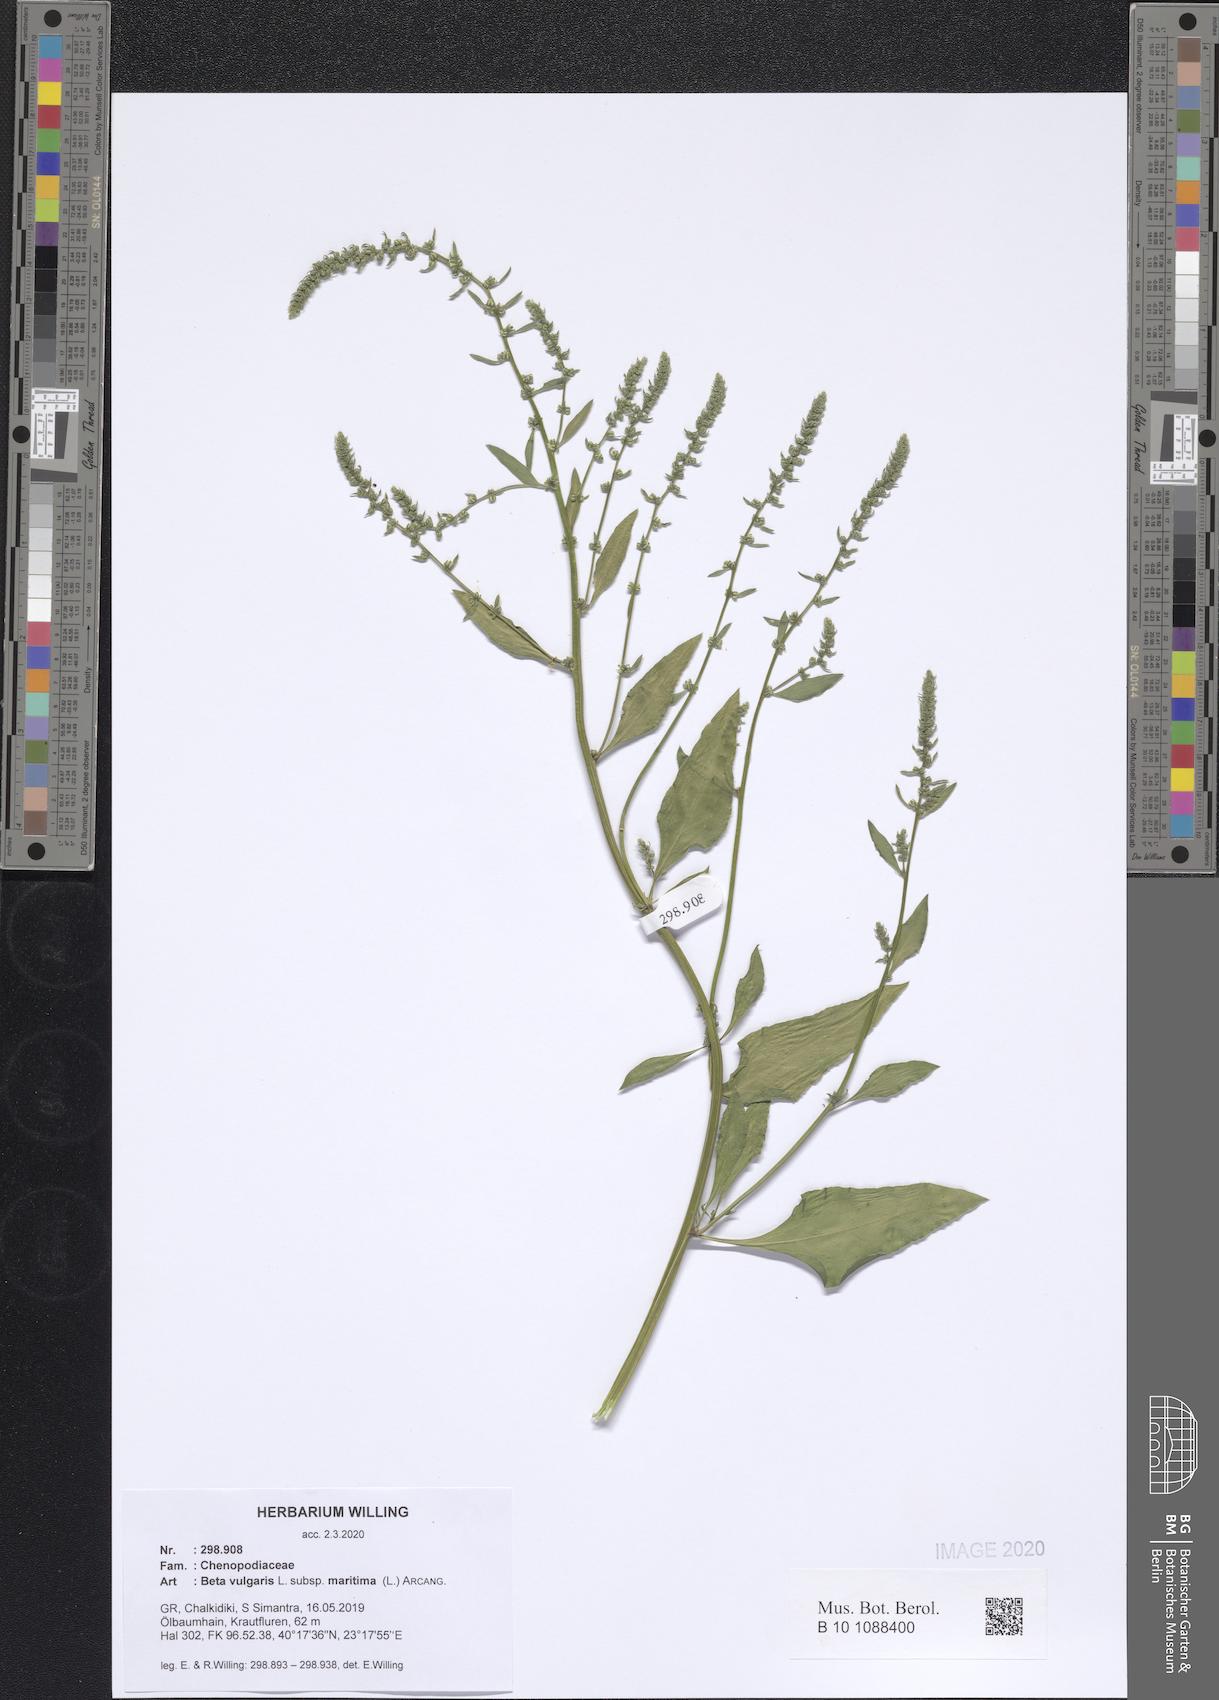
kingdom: Plantae
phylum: Tracheophyta
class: Magnoliopsida
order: Caryophyllales
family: Amaranthaceae
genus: Beta
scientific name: Beta maritima
